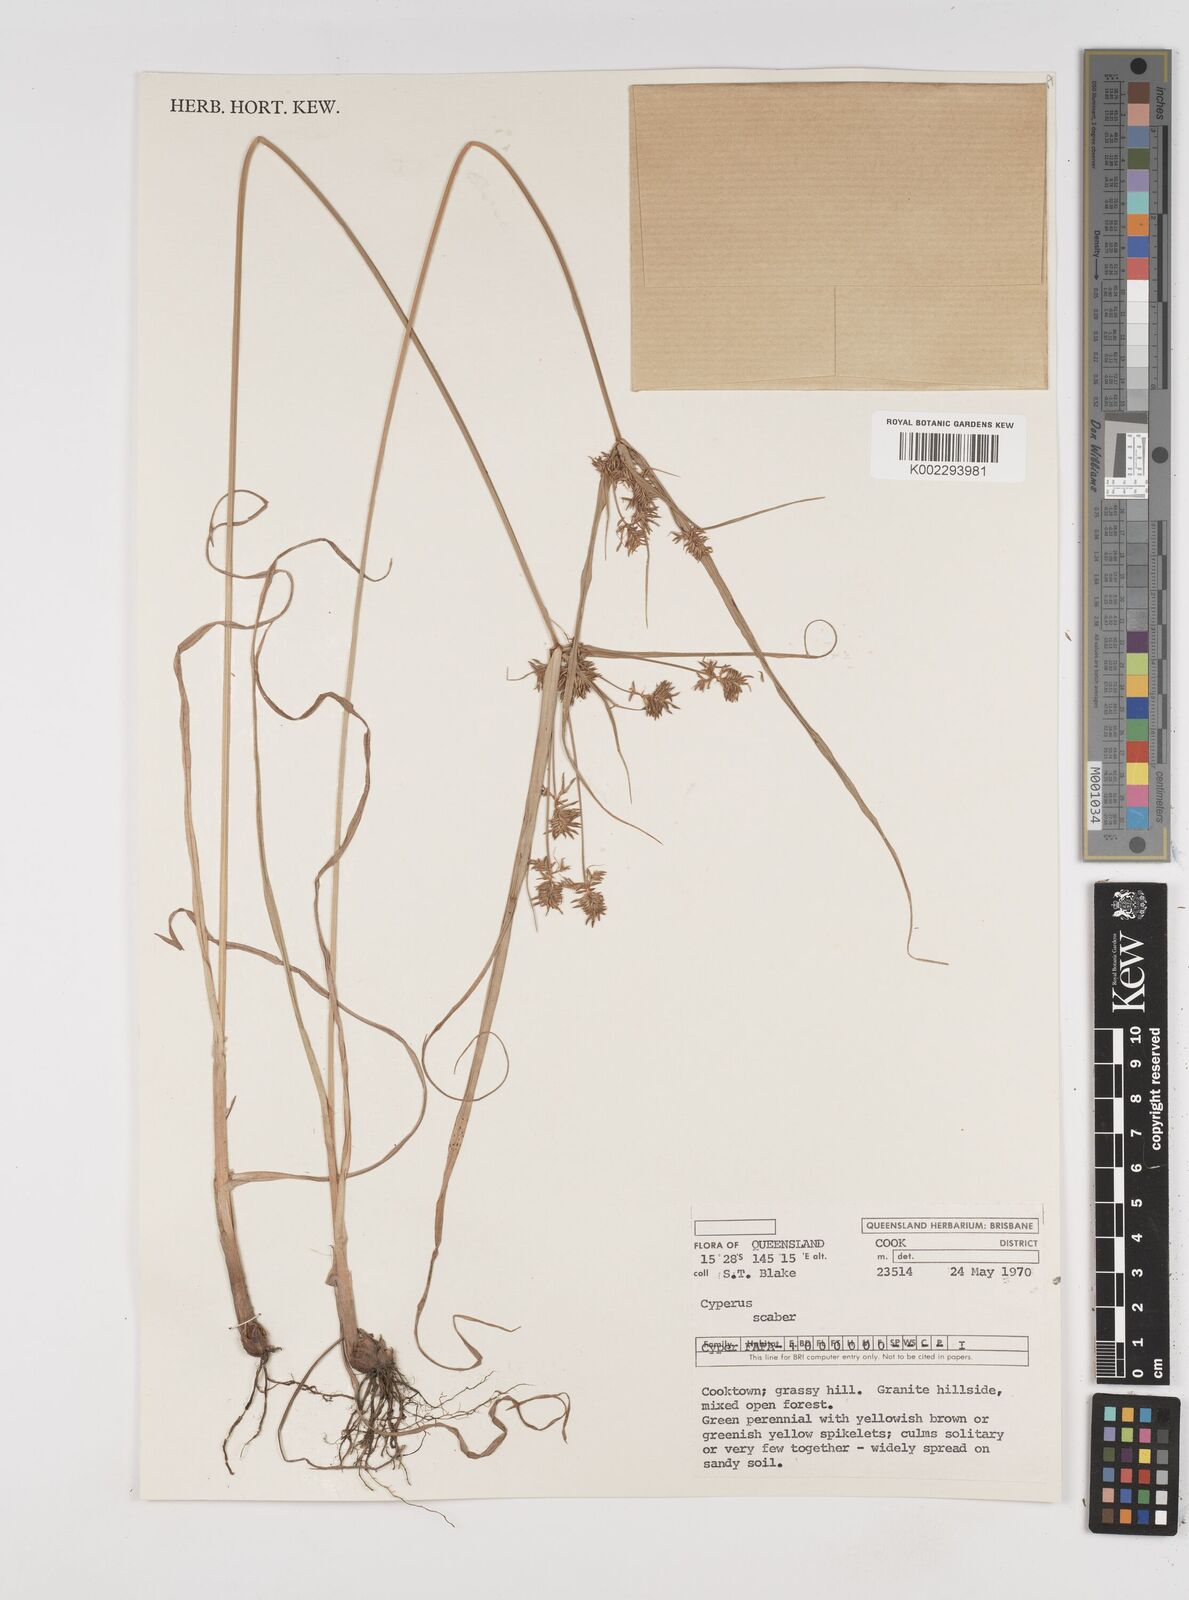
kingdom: Plantae
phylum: Tracheophyta
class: Liliopsida
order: Poales
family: Cyperaceae
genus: Cyperus
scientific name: Cyperus scaber
